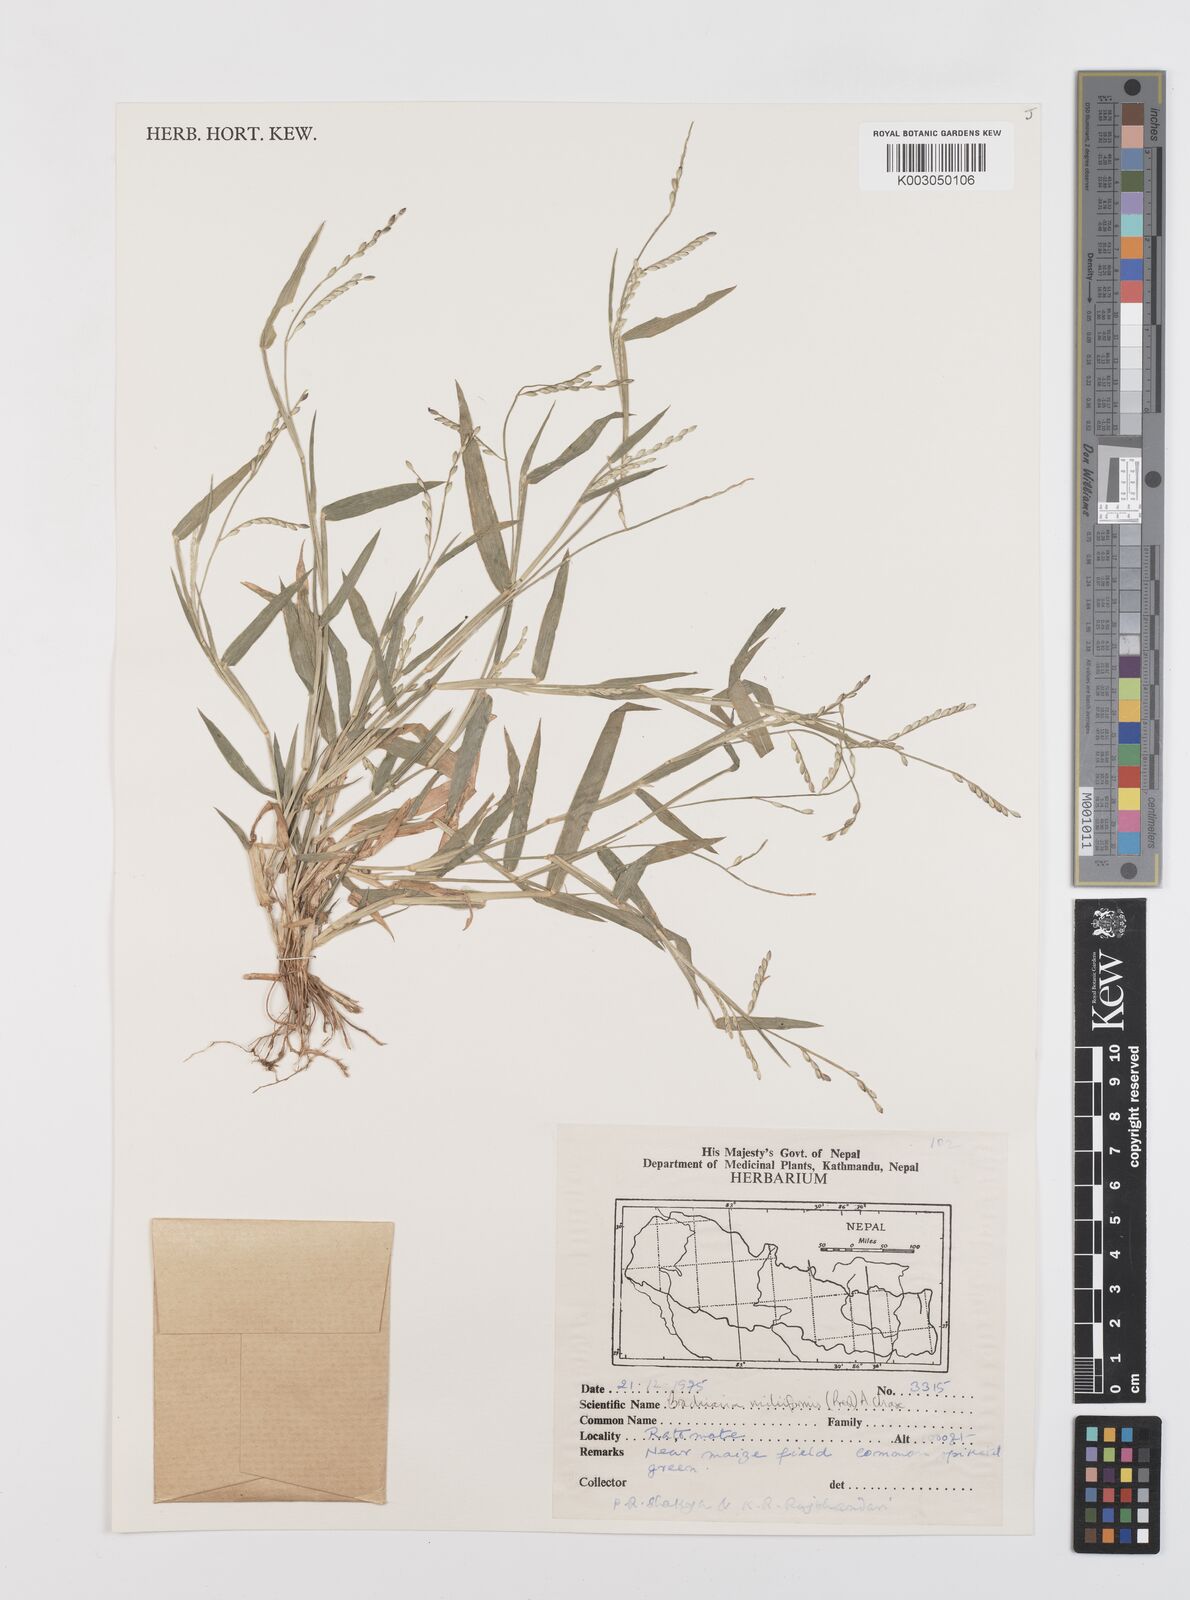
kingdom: Plantae
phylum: Tracheophyta
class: Liliopsida
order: Poales
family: Poaceae
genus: Urochloa
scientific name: Urochloa subquadripara
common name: Armgrass millet
